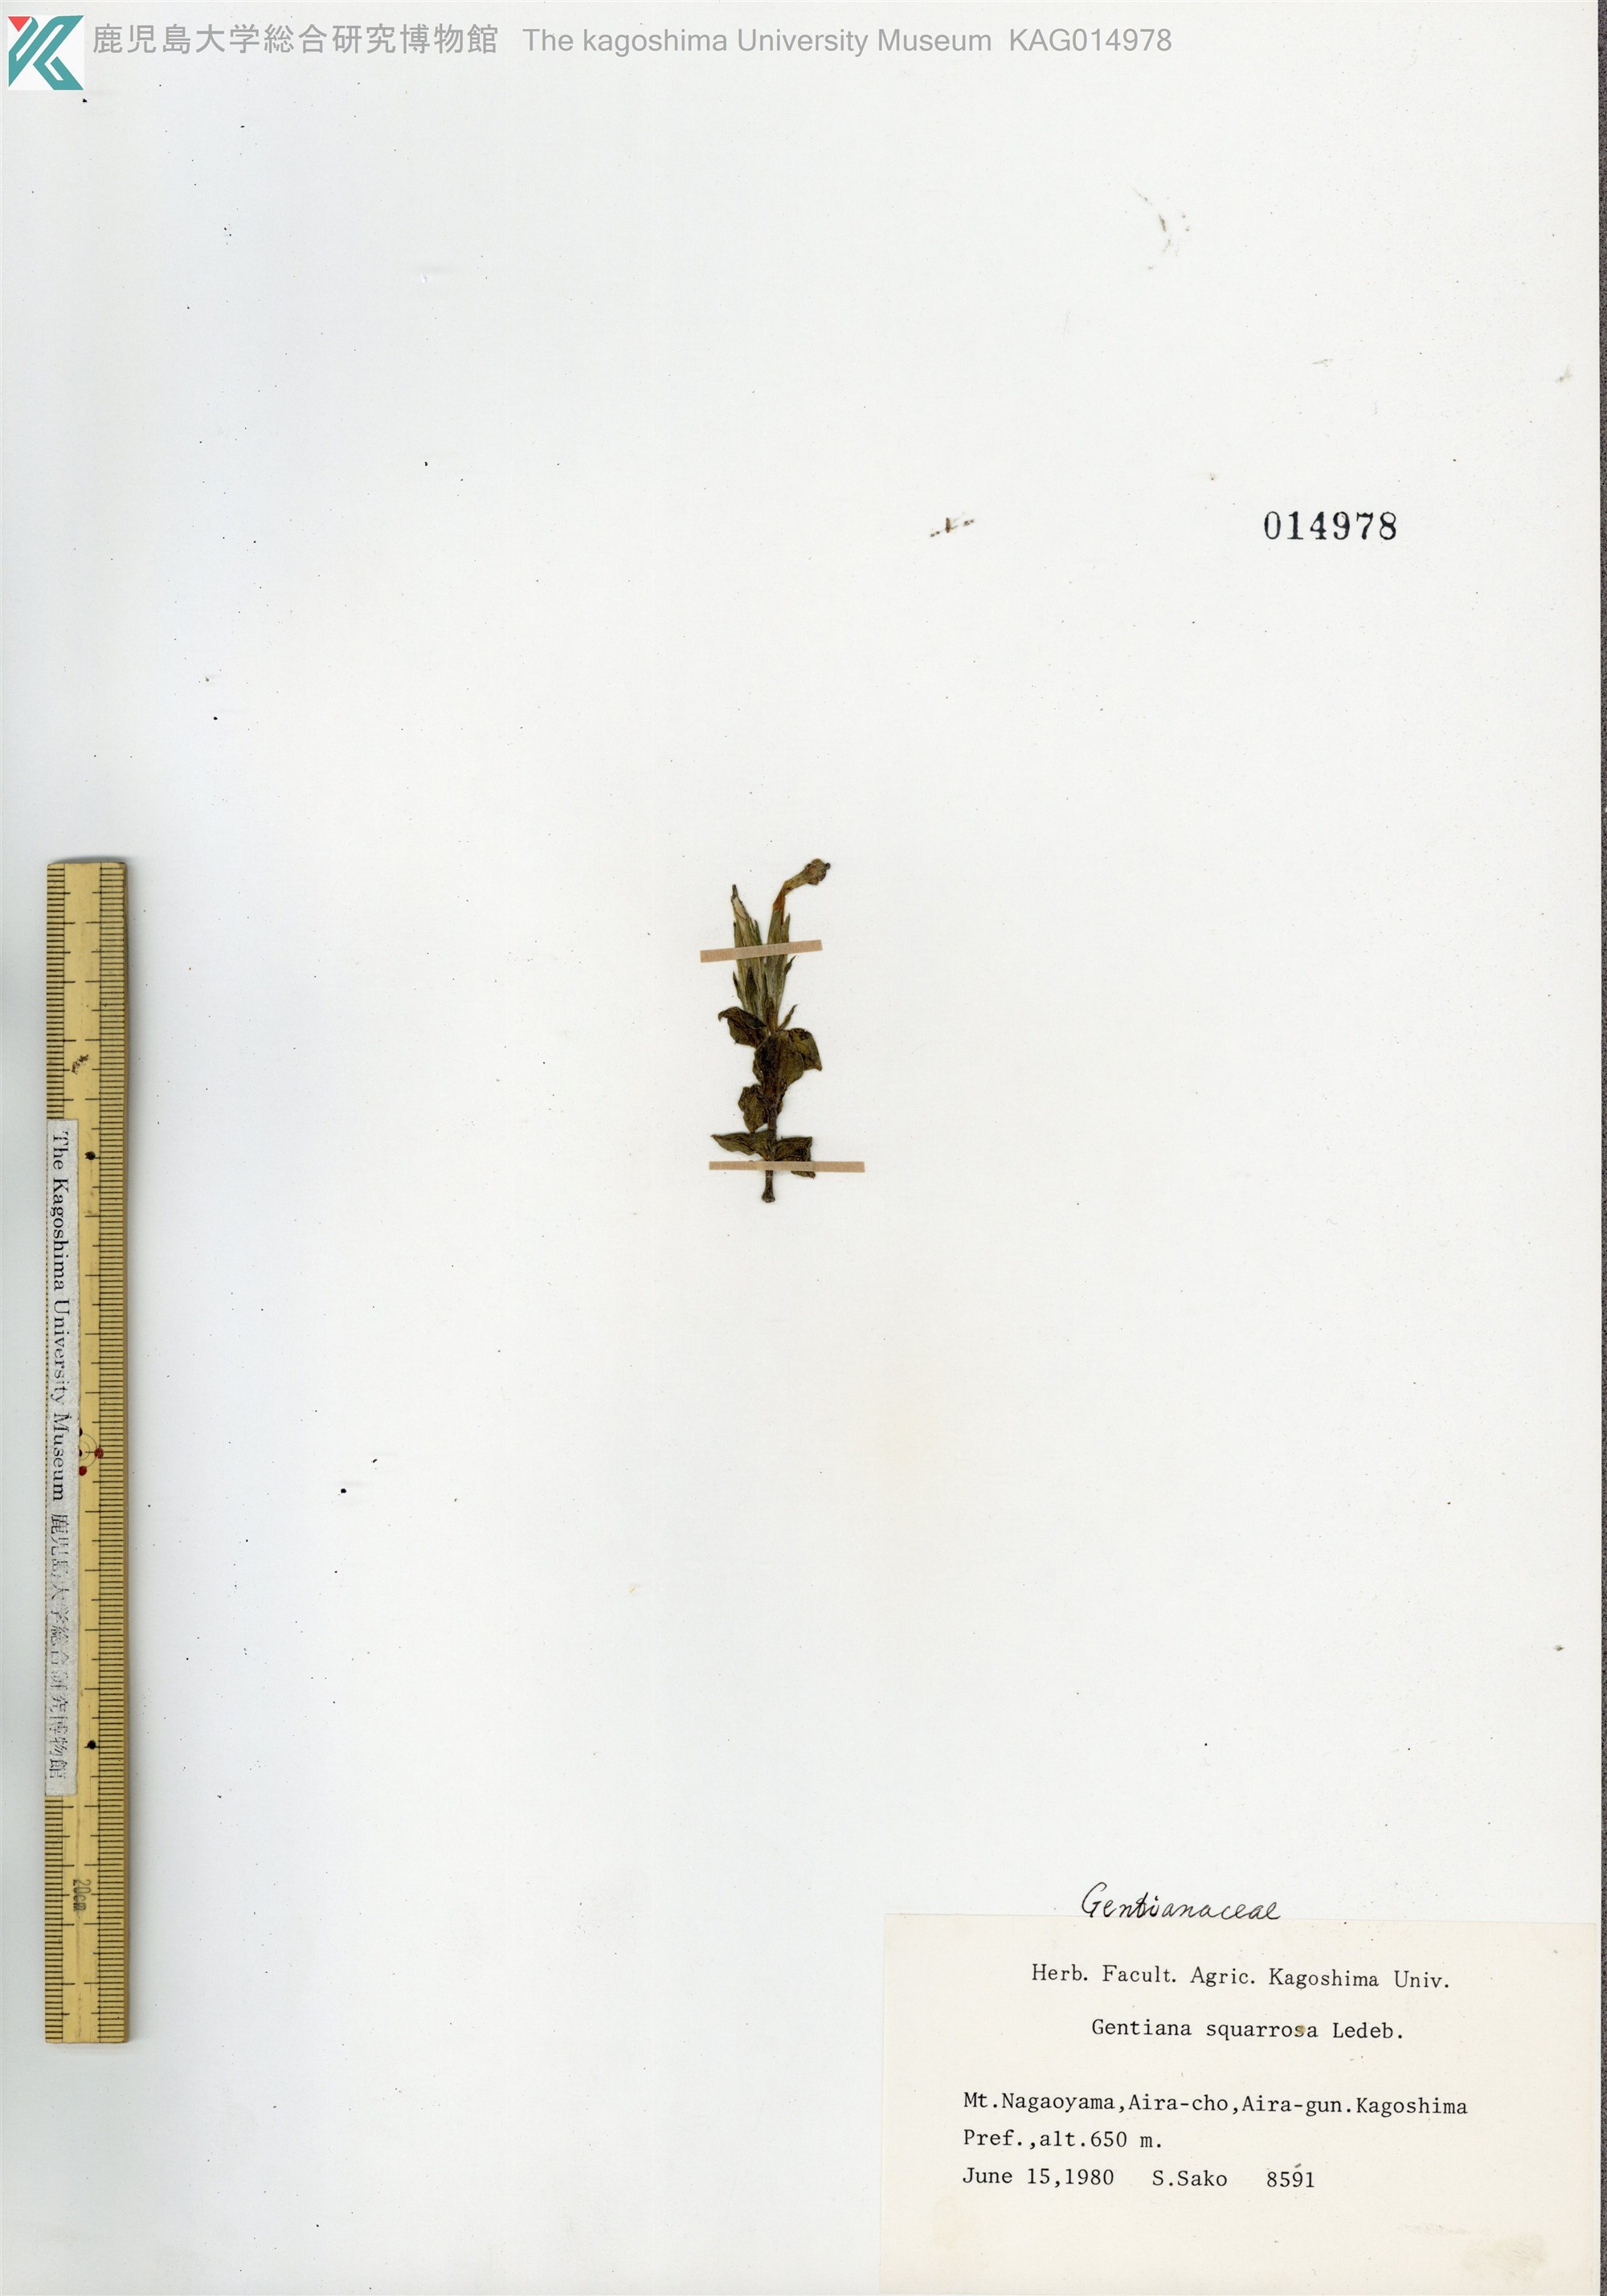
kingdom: Plantae
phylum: Tracheophyta
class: Magnoliopsida
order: Gentianales
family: Gentianaceae
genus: Gentiana
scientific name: Gentiana zollingeri
